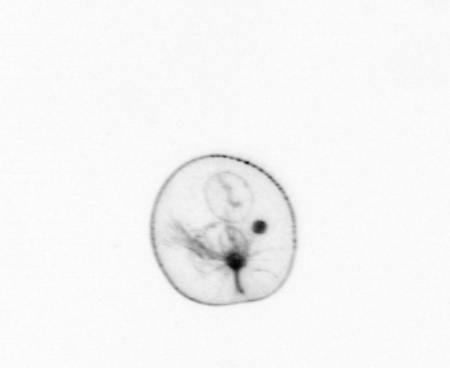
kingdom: Chromista
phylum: Myzozoa
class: Dinophyceae
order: Noctilucales
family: Noctilucaceae
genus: Noctiluca
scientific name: Noctiluca scintillans
